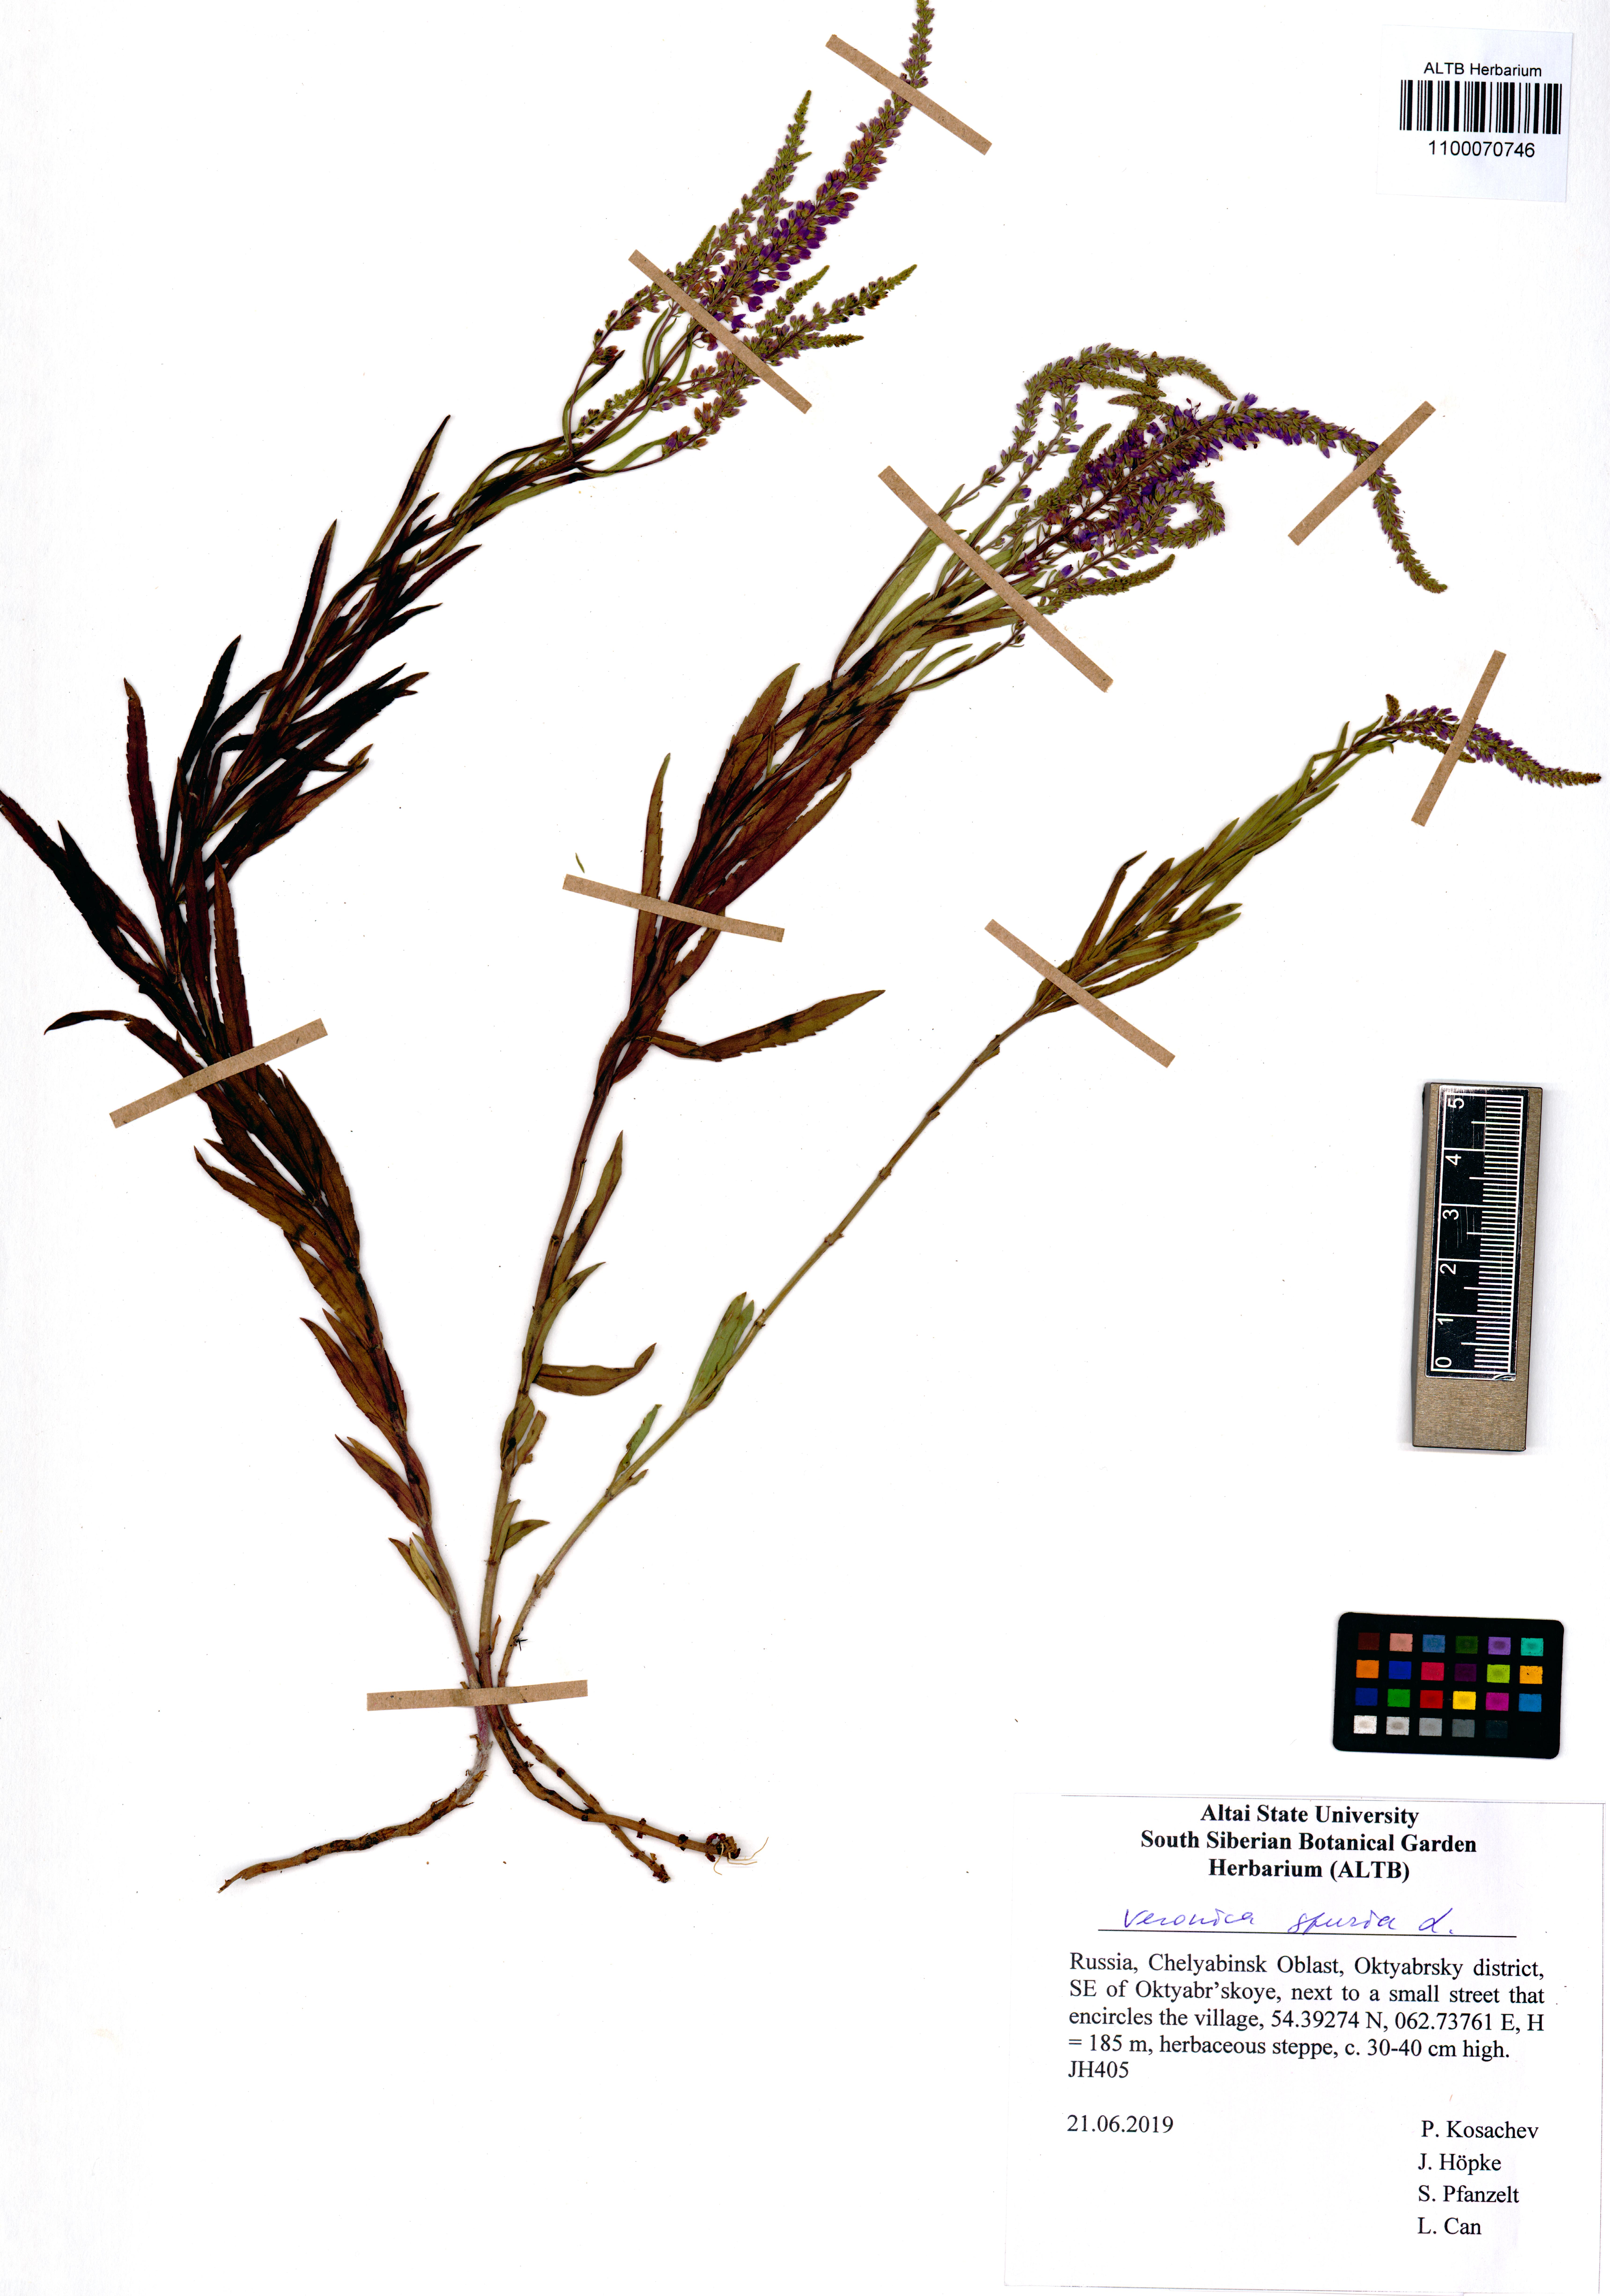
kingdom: Plantae
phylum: Tracheophyta
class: Magnoliopsida
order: Lamiales
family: Plantaginaceae
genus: Veronica
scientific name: Veronica spuria
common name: Bastard speedwell
